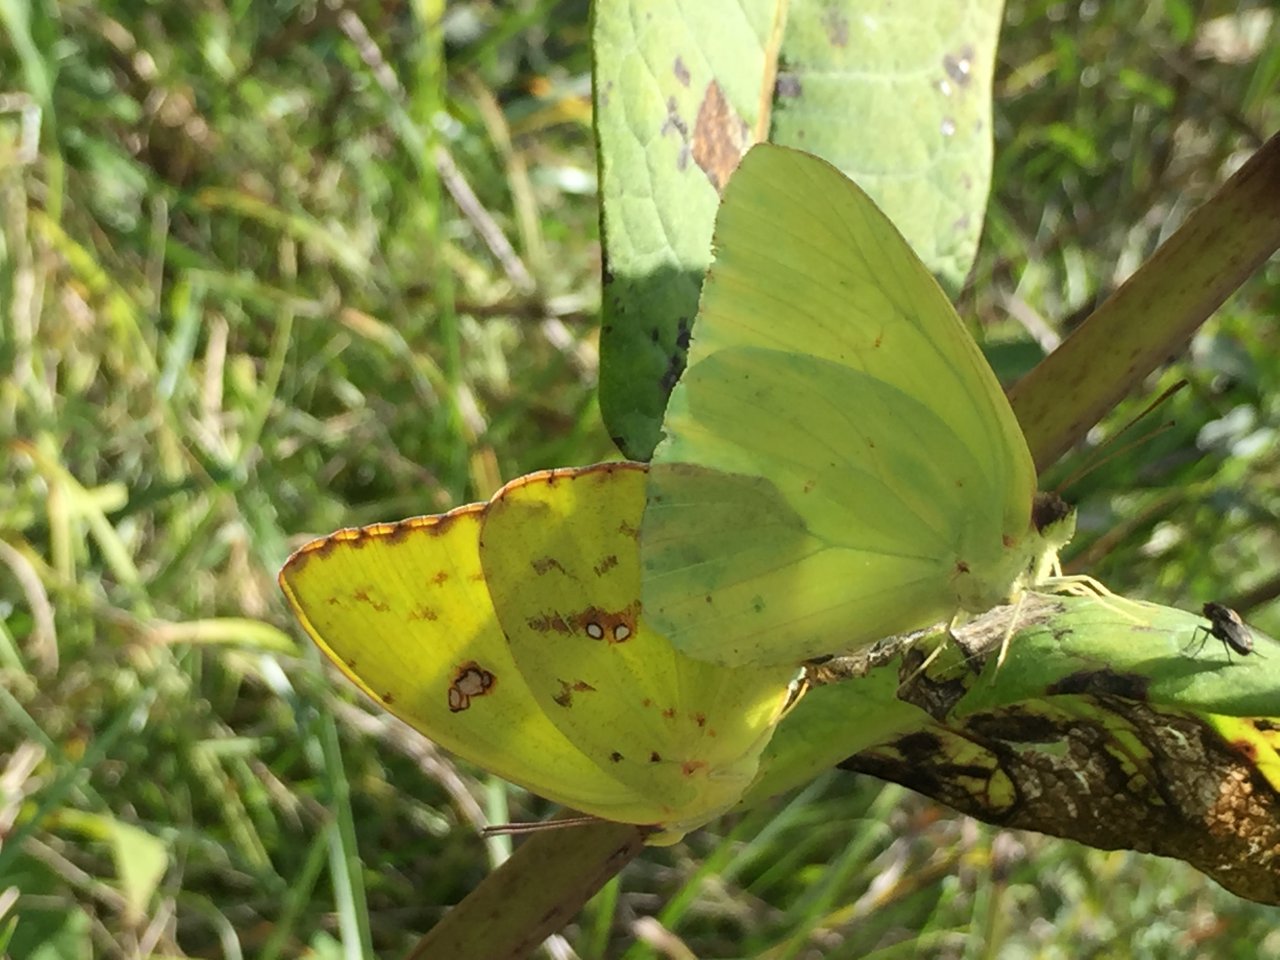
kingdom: Animalia
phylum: Arthropoda
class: Insecta
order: Lepidoptera
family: Pieridae
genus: Phoebis
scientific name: Phoebis sennae
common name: Cloudless Sulphur
